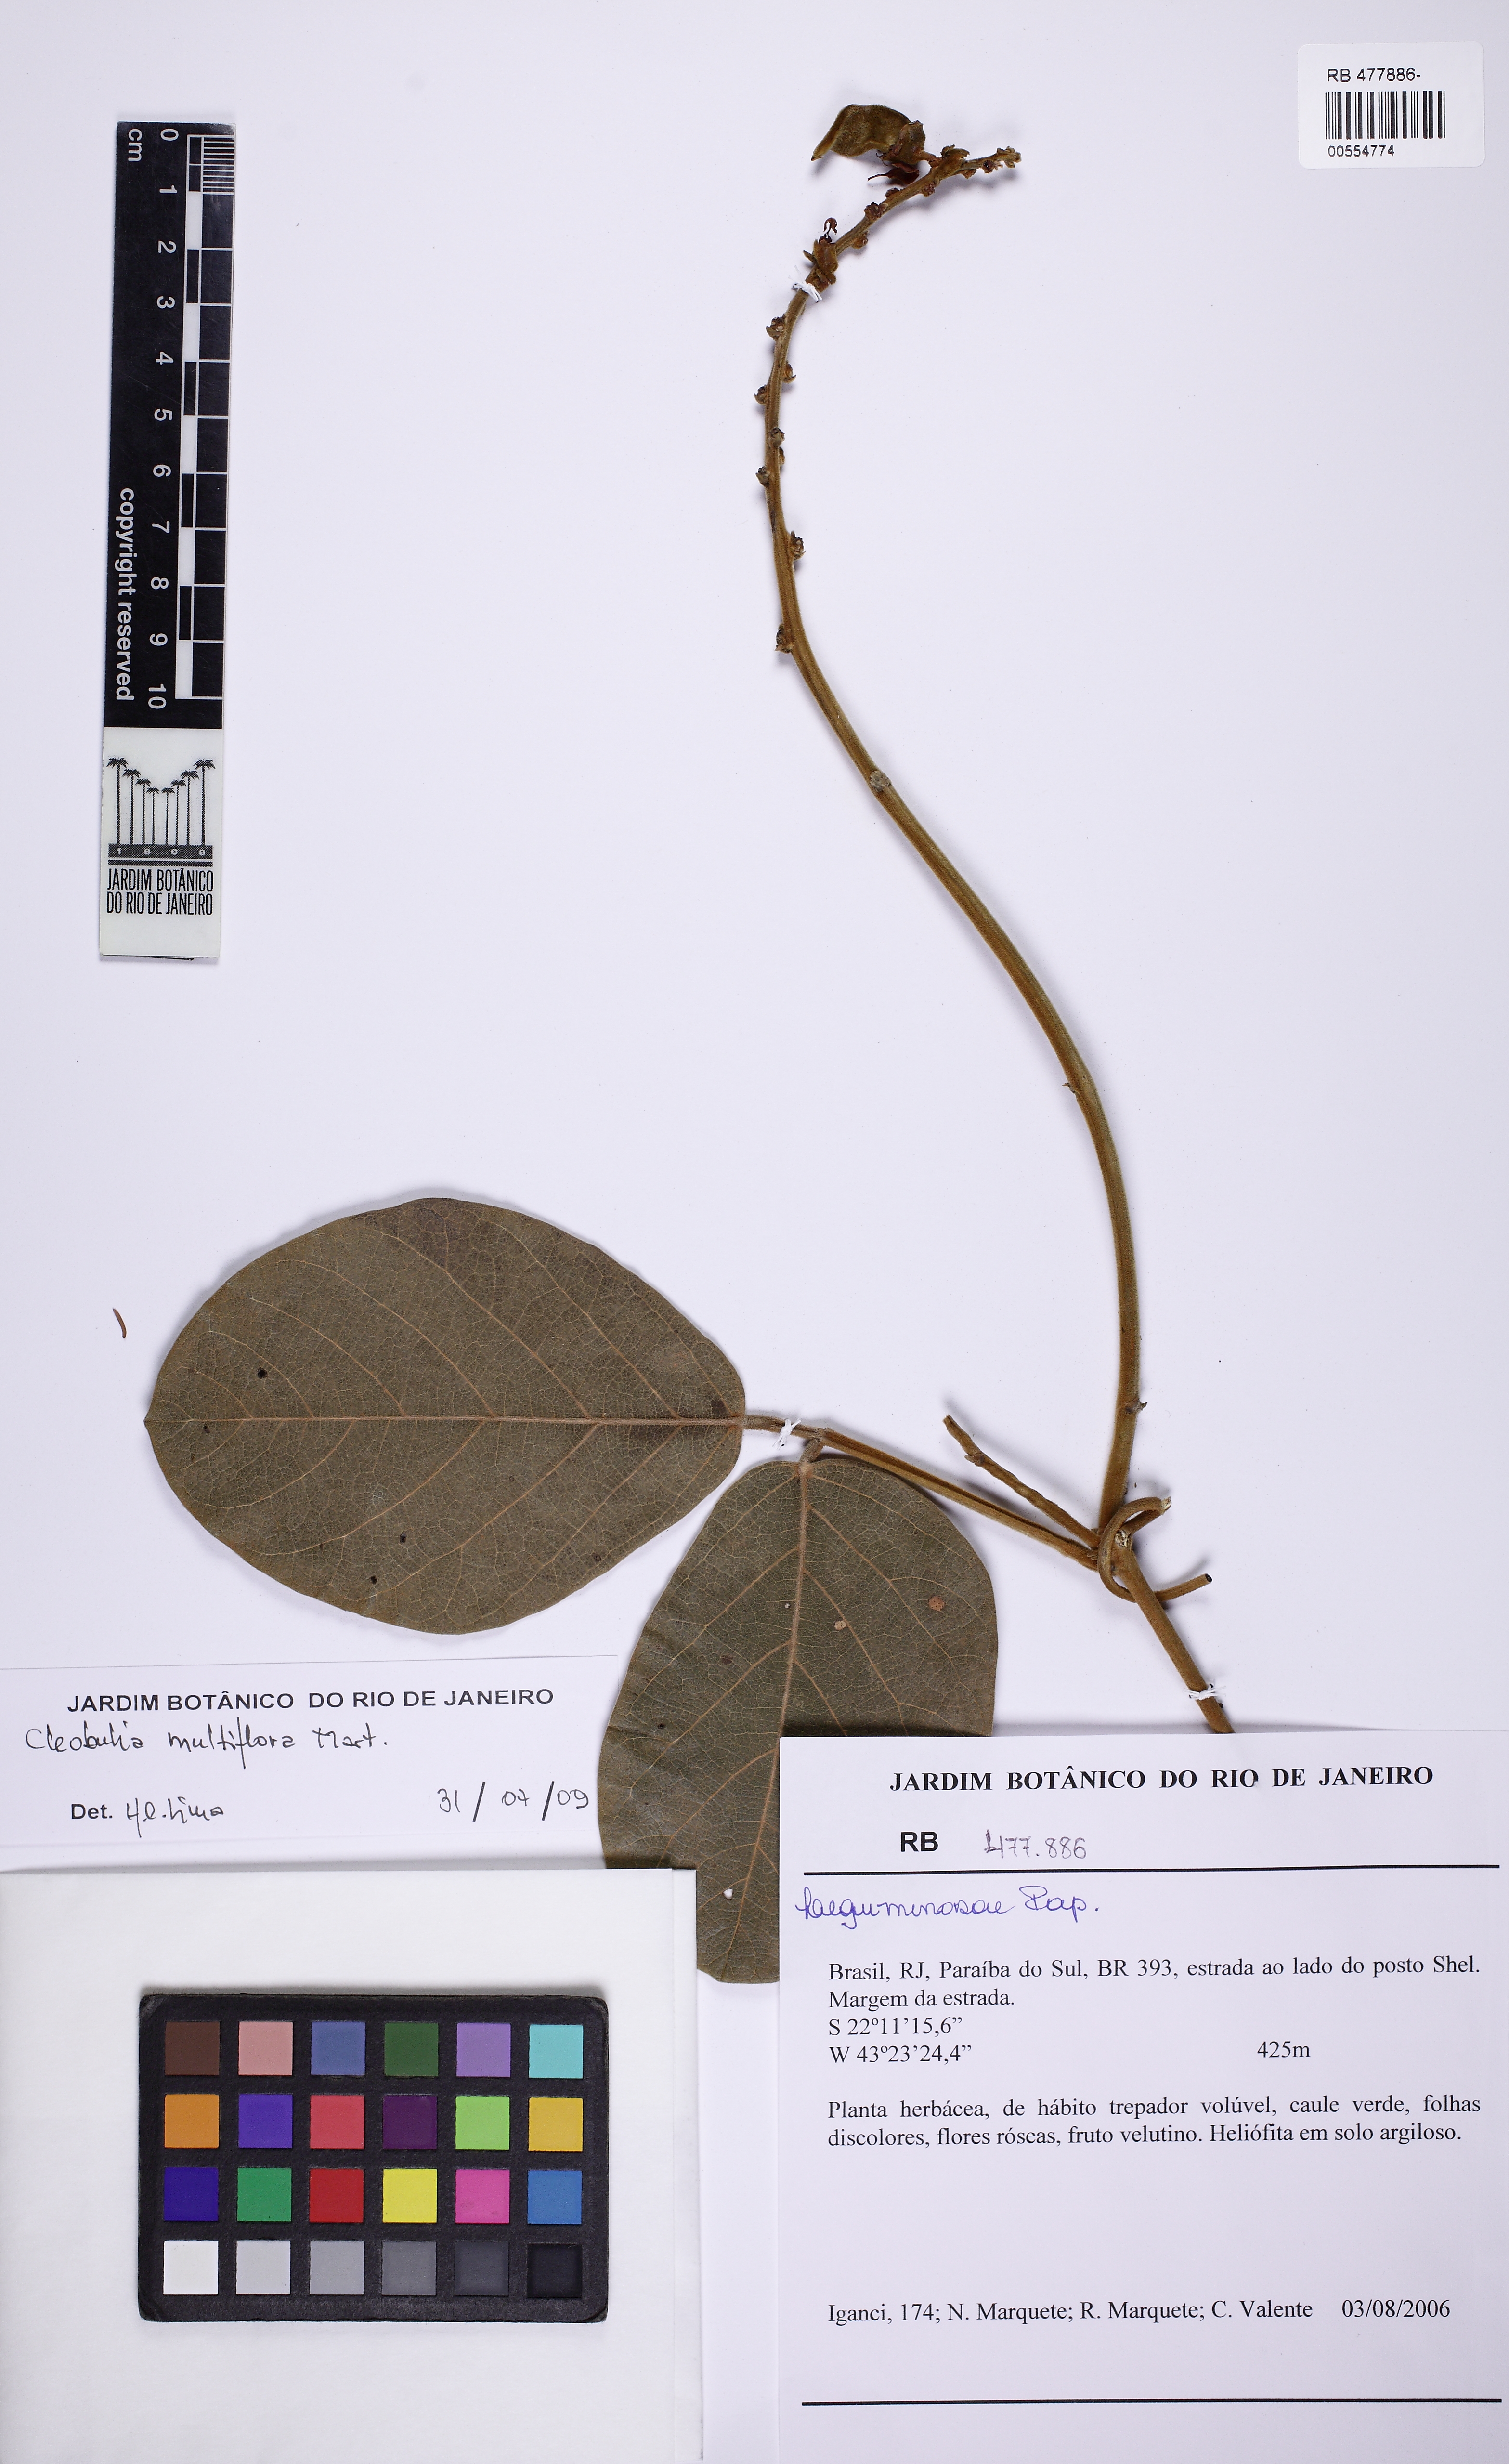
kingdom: Plantae
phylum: Tracheophyta
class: Magnoliopsida
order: Fabales
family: Fabaceae
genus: Cleobulia
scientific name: Cleobulia coccinea
